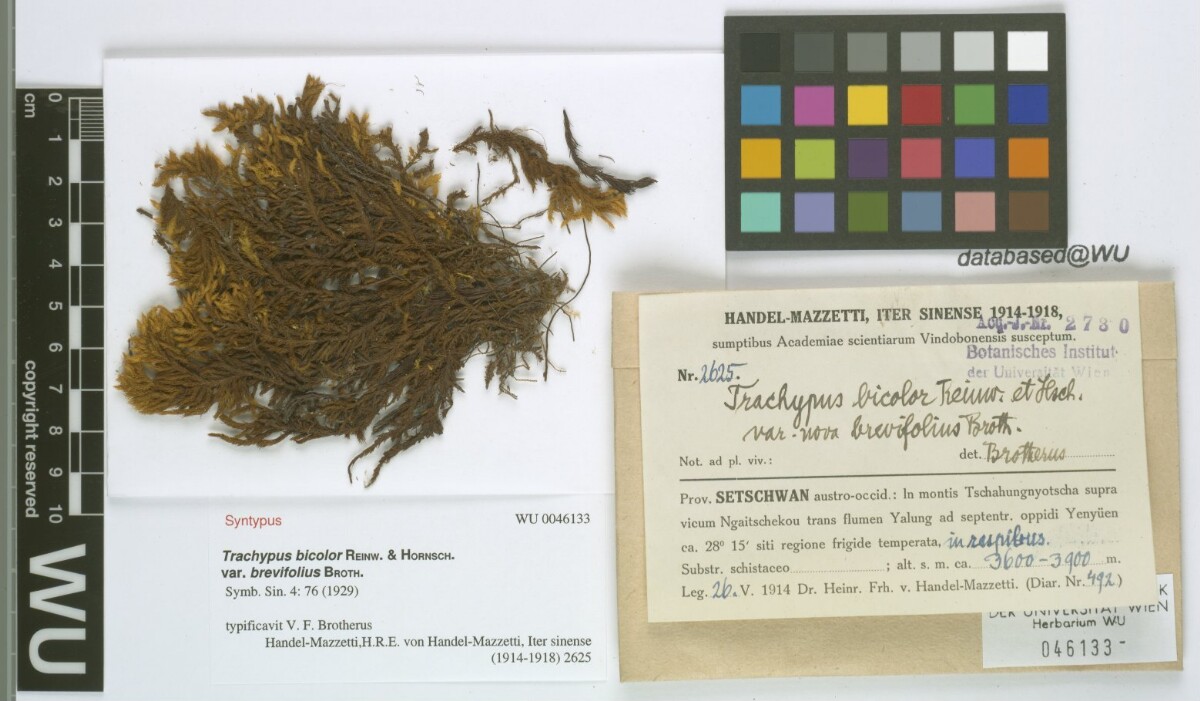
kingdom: Plantae
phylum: Bryophyta
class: Bryopsida
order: Hypnales
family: Meteoriaceae
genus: Trachypus
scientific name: Trachypus bicolor
